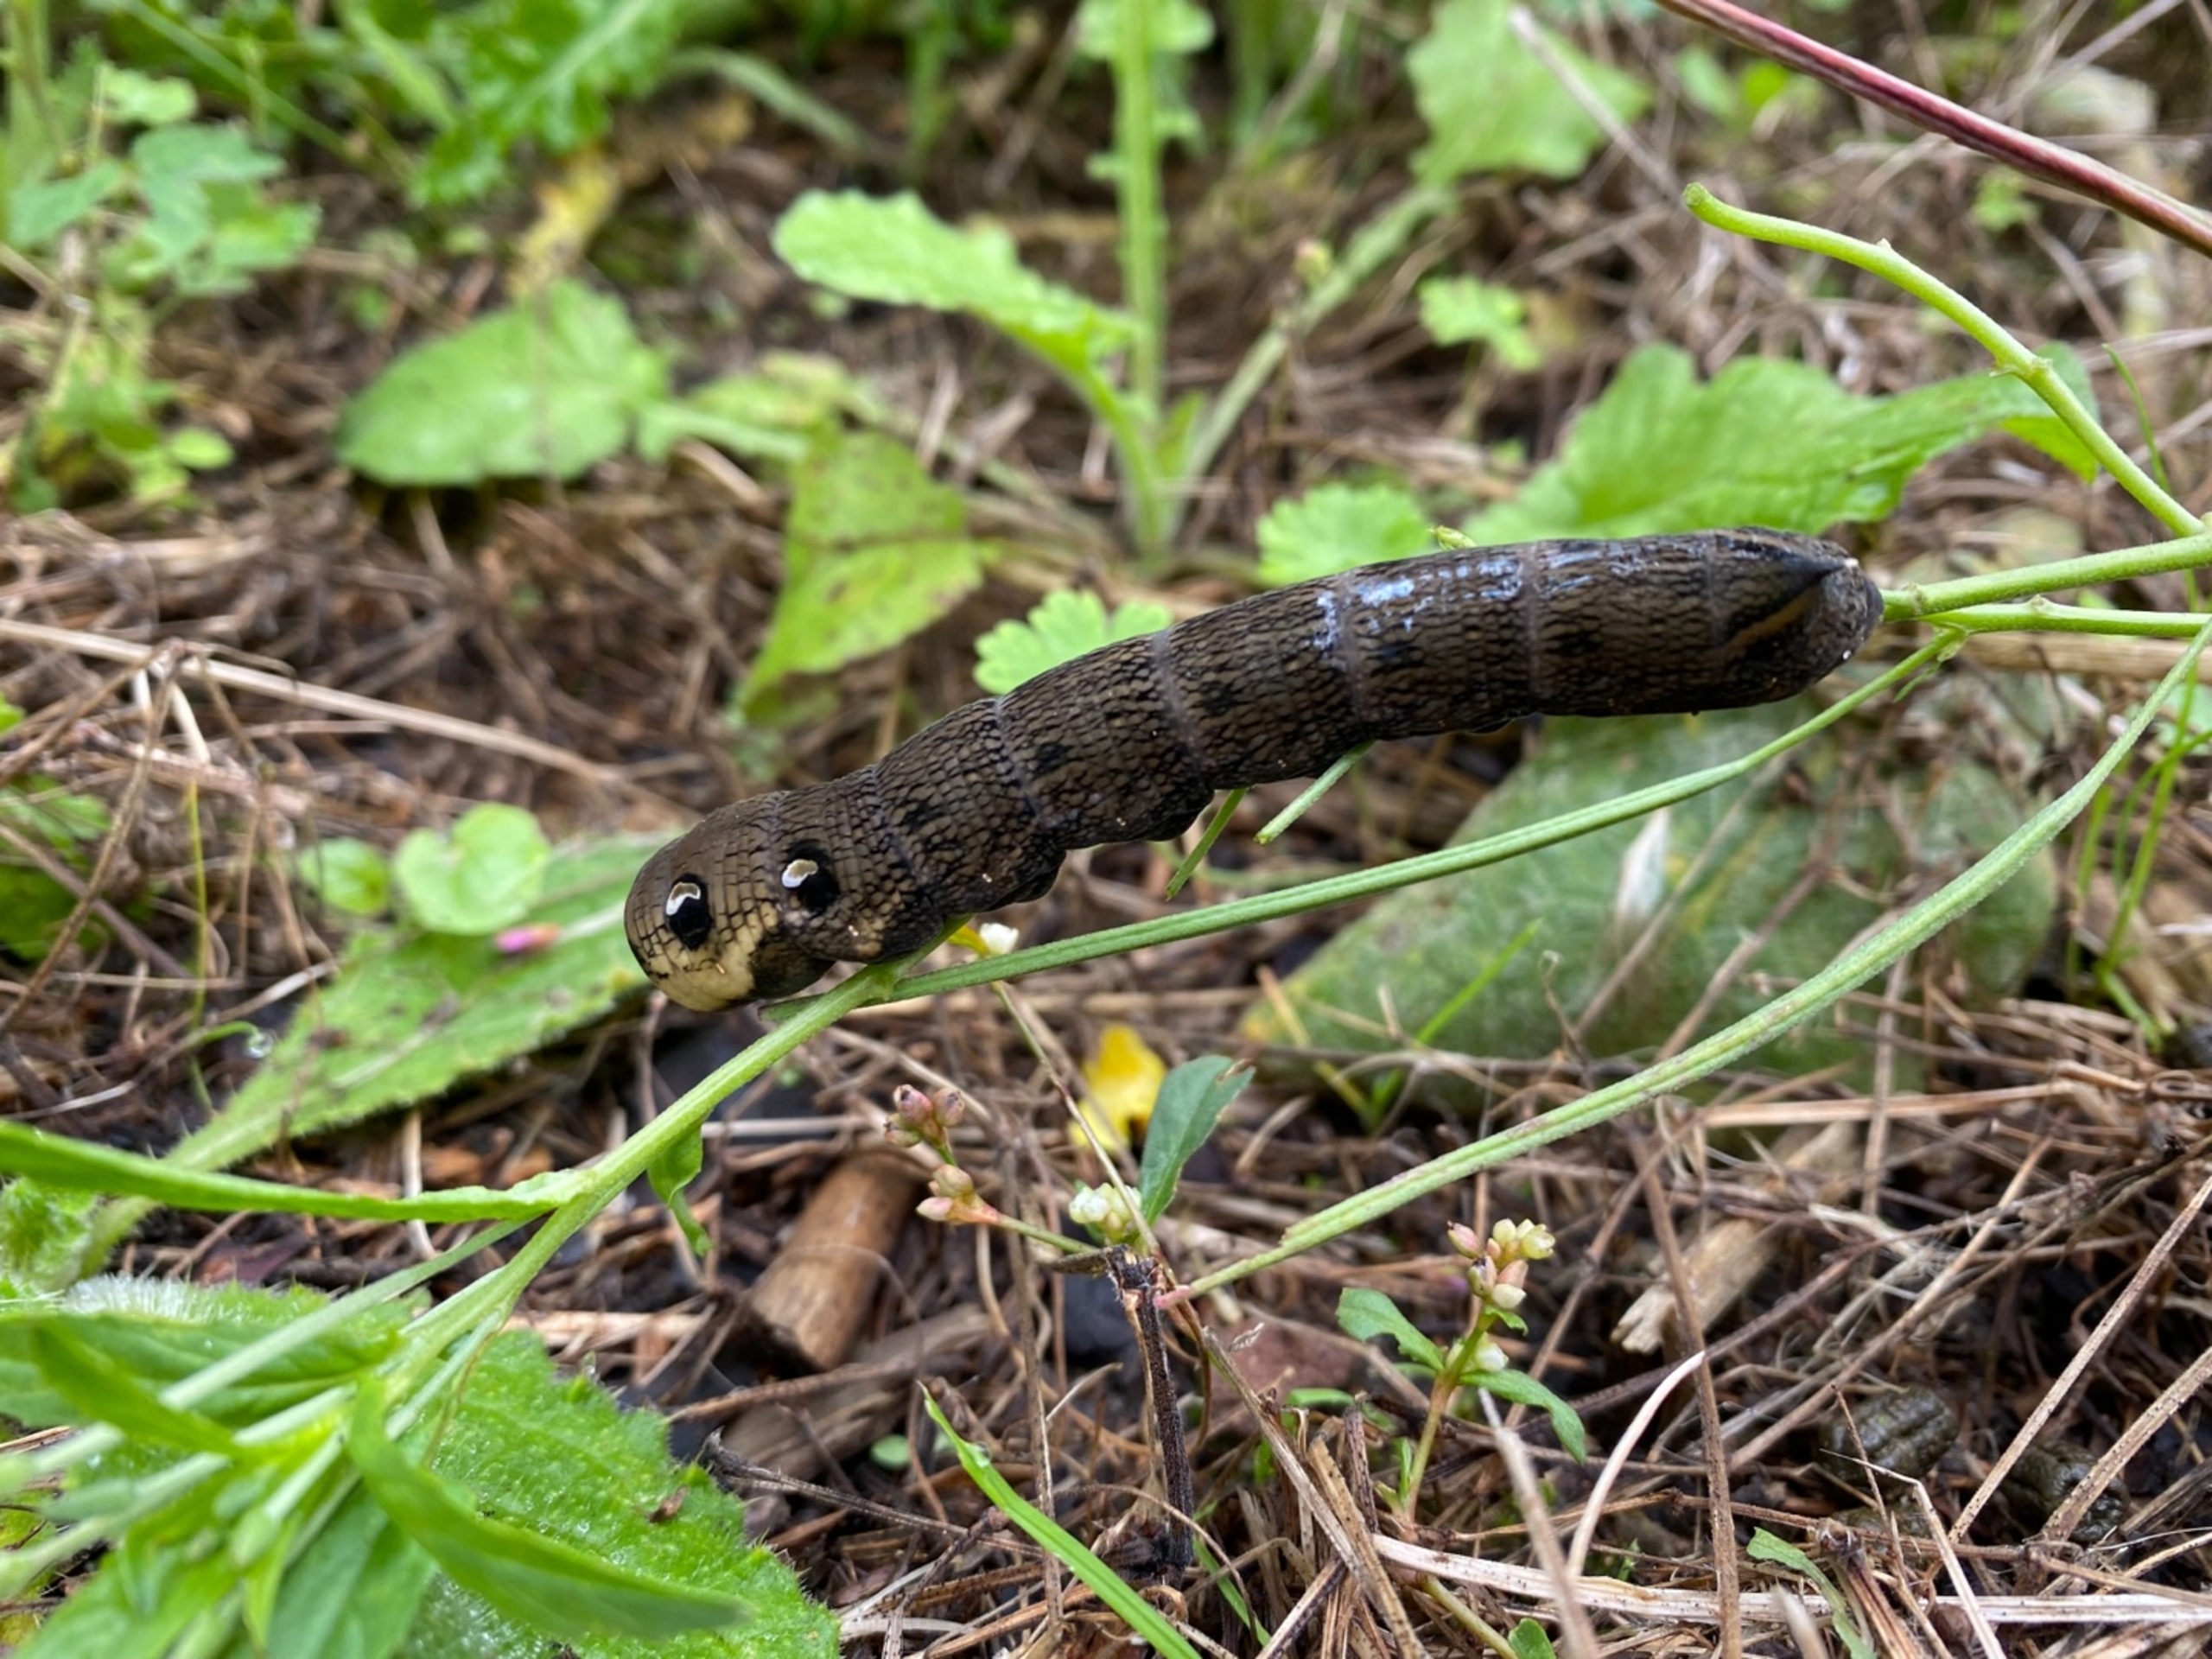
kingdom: Animalia
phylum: Arthropoda
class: Insecta
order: Lepidoptera
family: Sphingidae
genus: Deilephila
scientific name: Deilephila elpenor
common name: Dueurtsværmer
